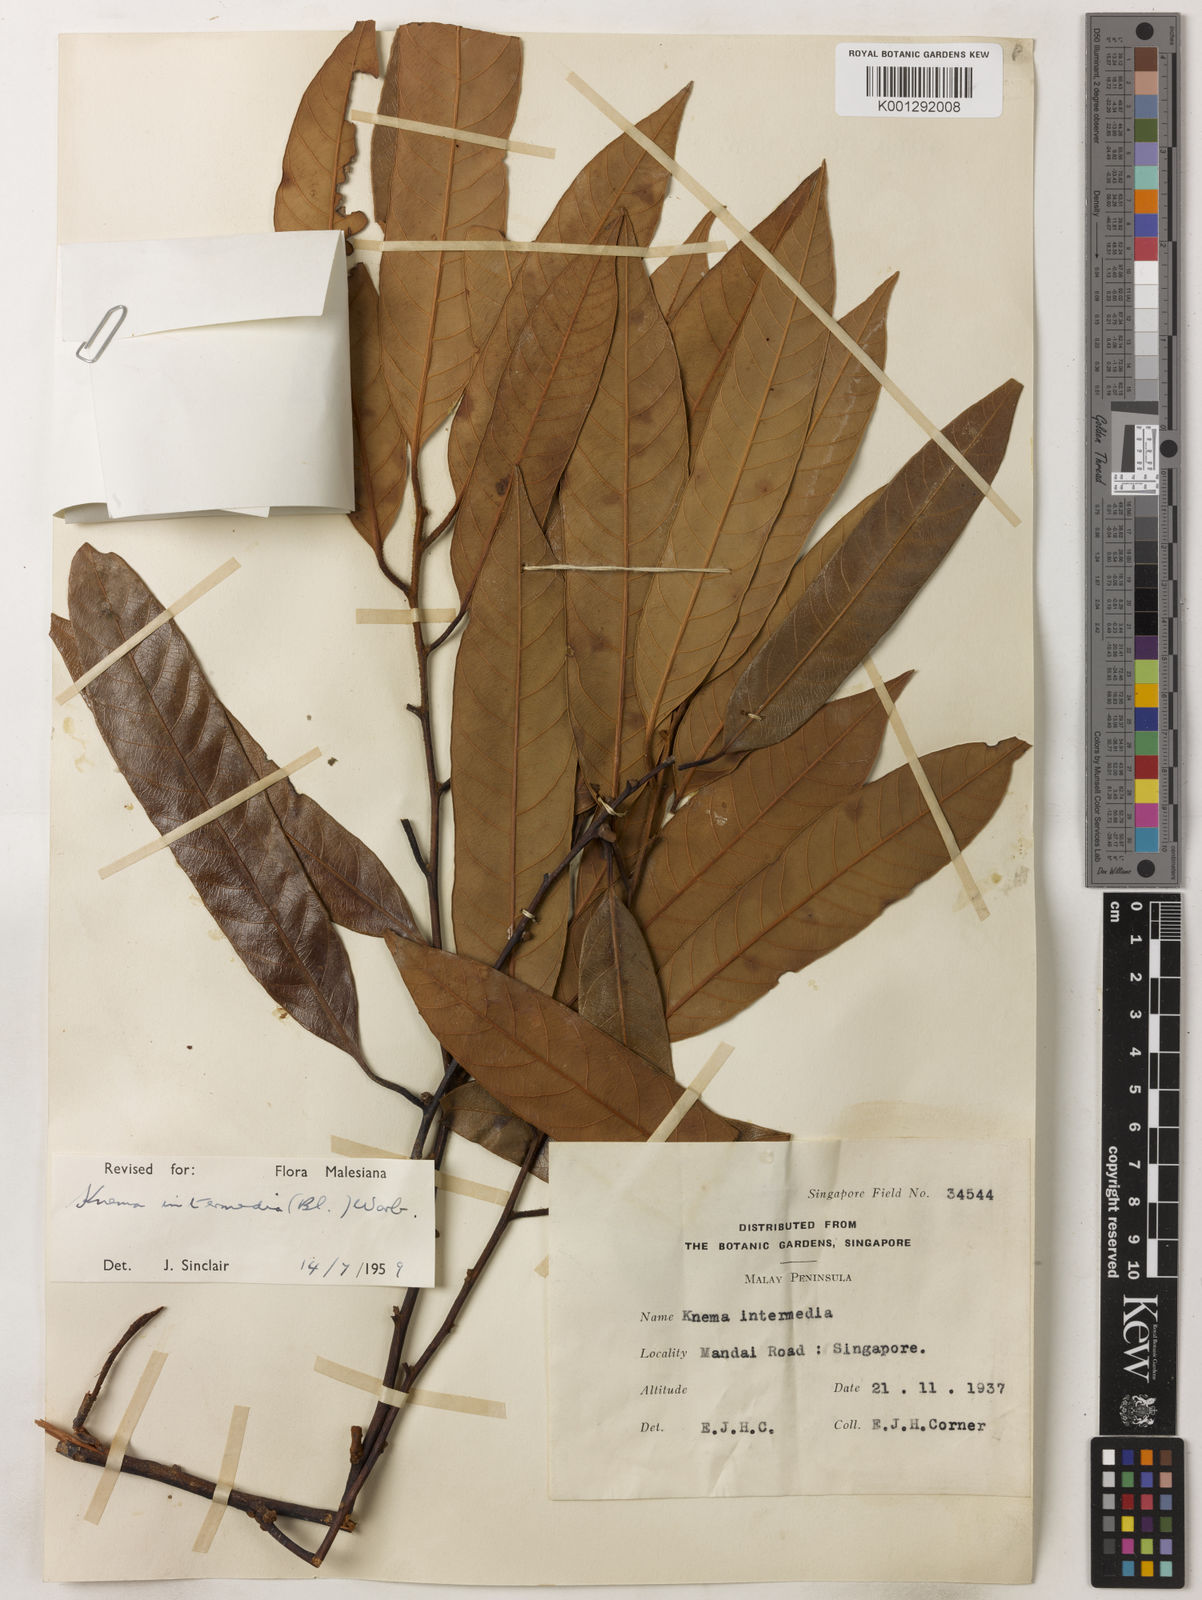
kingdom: Plantae
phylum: Tracheophyta
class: Magnoliopsida
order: Magnoliales
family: Myristicaceae
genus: Knema
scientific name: Knema intermedia
